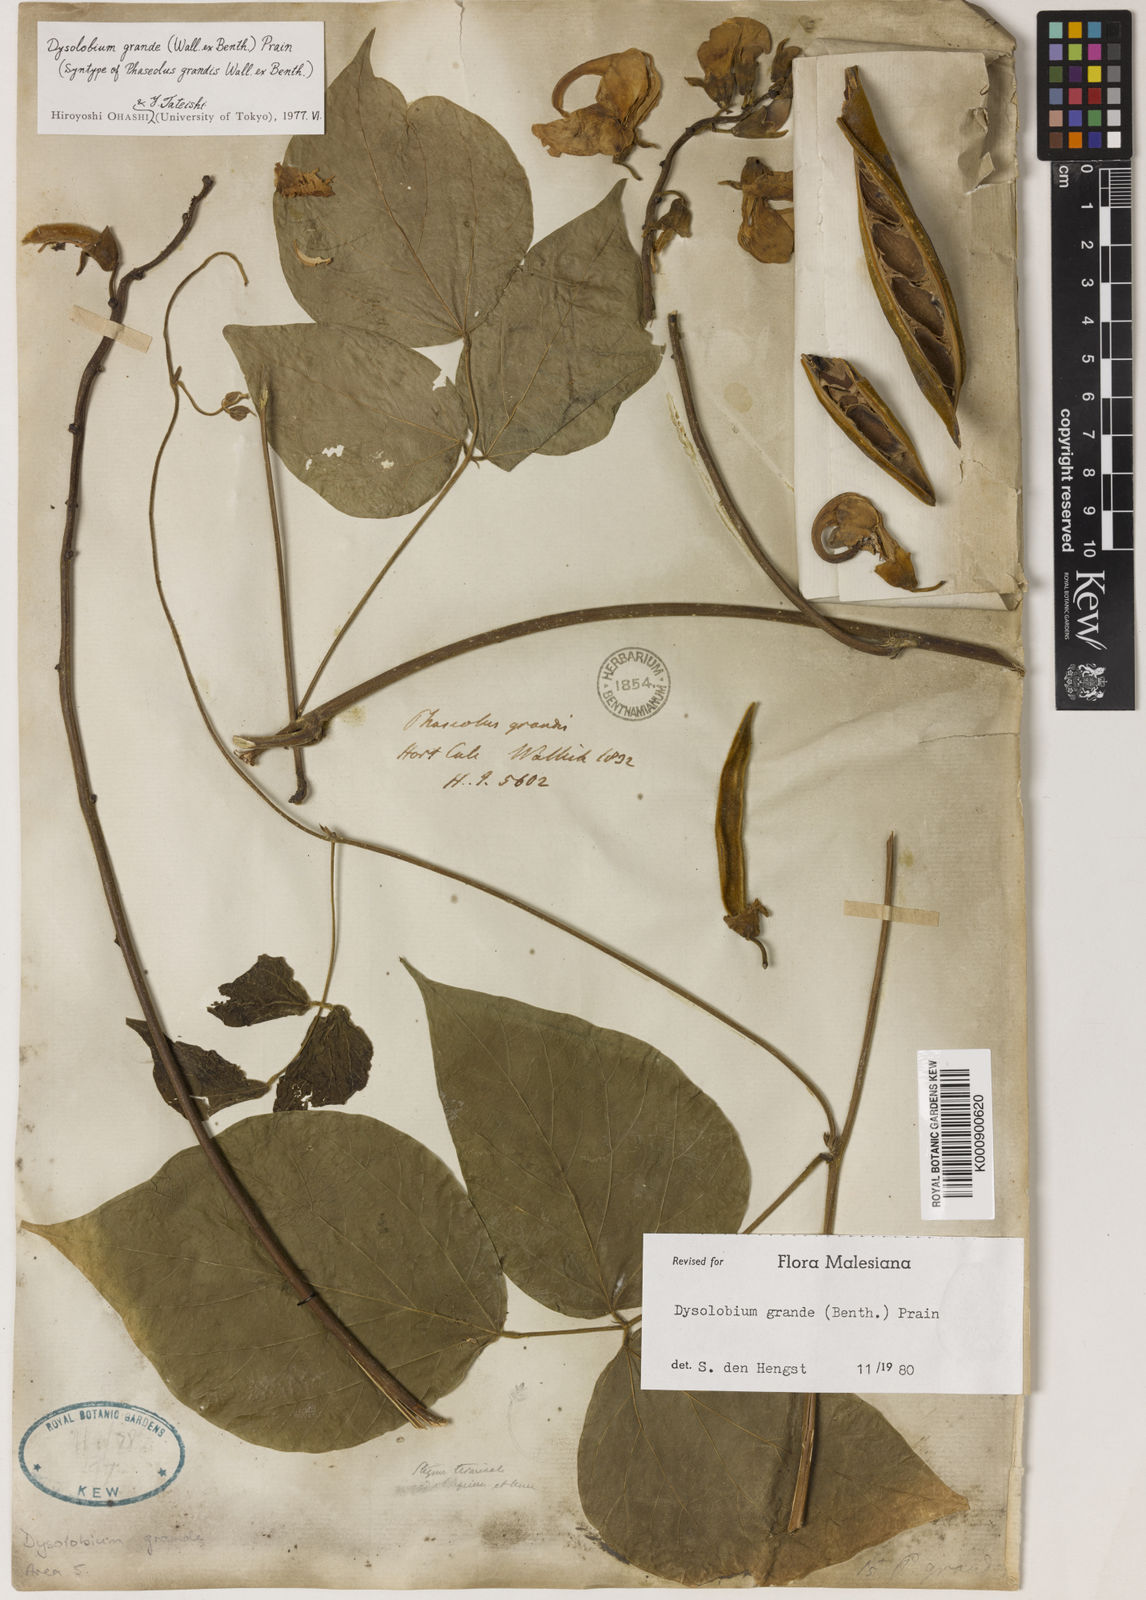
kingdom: Plantae
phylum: Tracheophyta
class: Magnoliopsida
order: Fabales
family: Fabaceae
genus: Dysolobium
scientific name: Dysolobium grande
